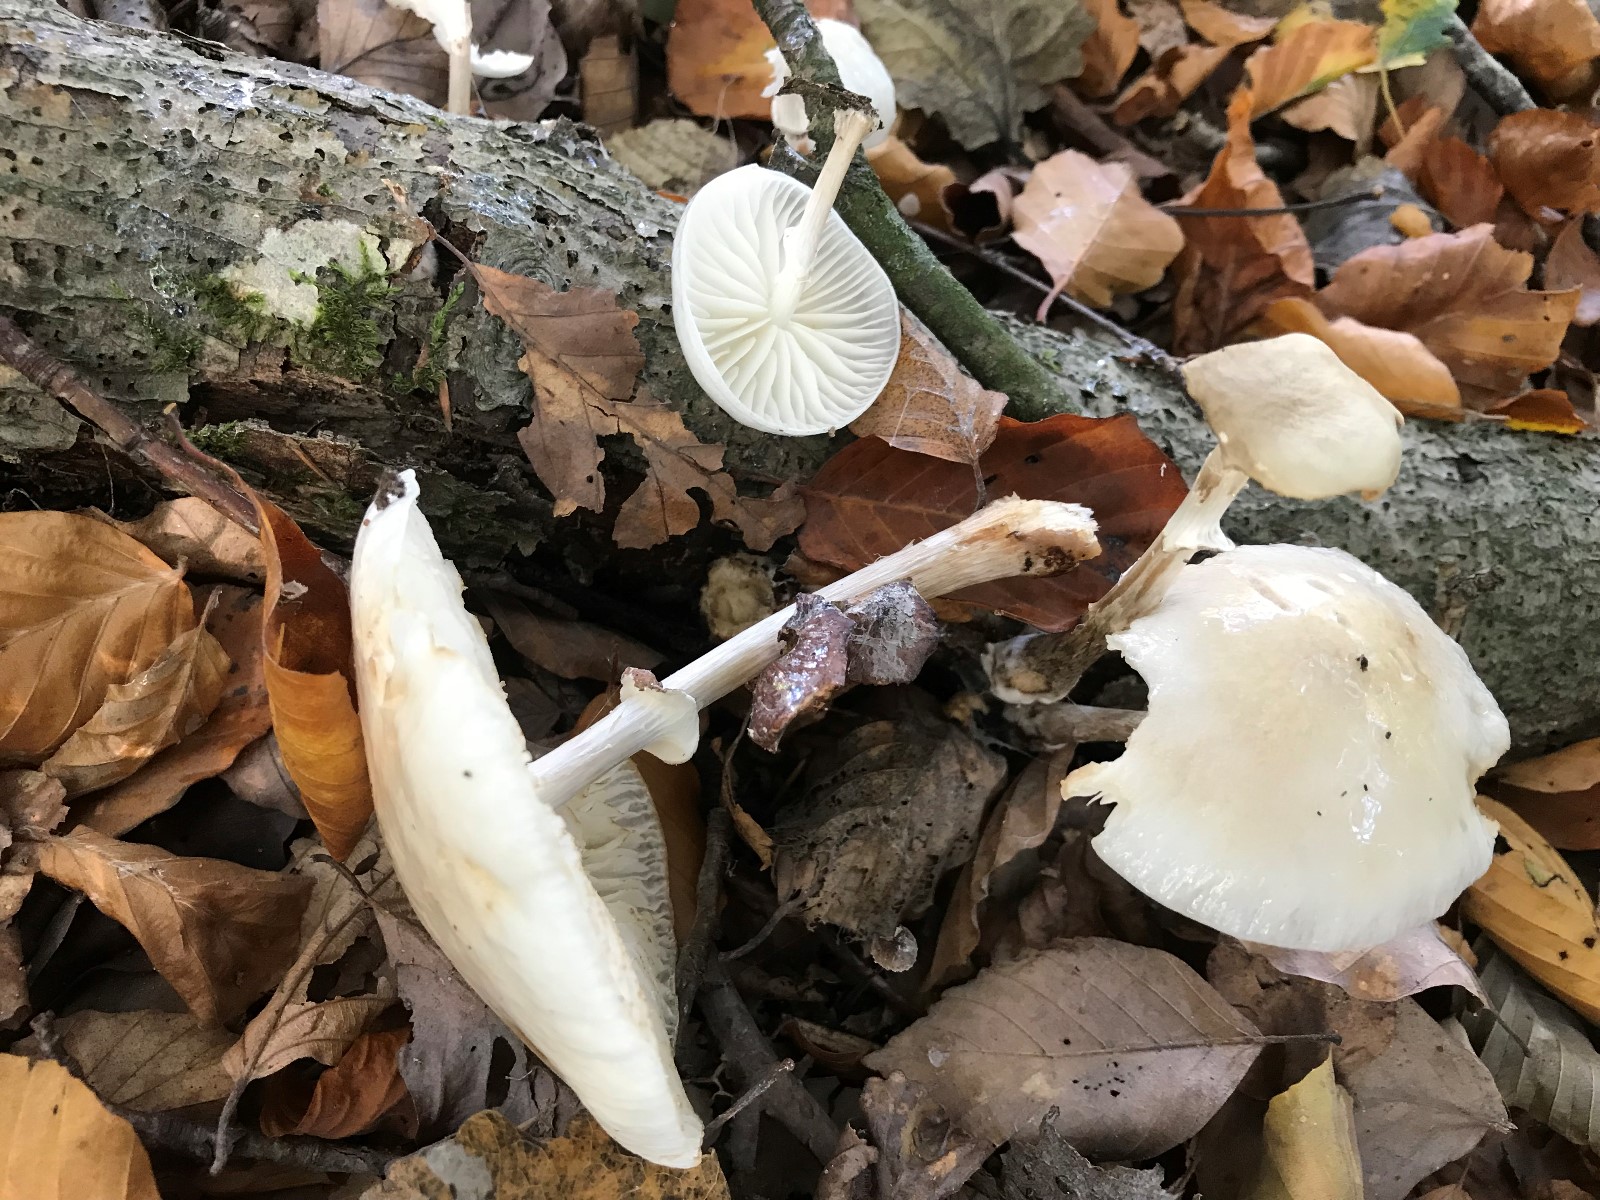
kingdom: Fungi
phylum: Basidiomycota
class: Agaricomycetes
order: Agaricales
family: Physalacriaceae
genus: Mucidula
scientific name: Mucidula mucida
